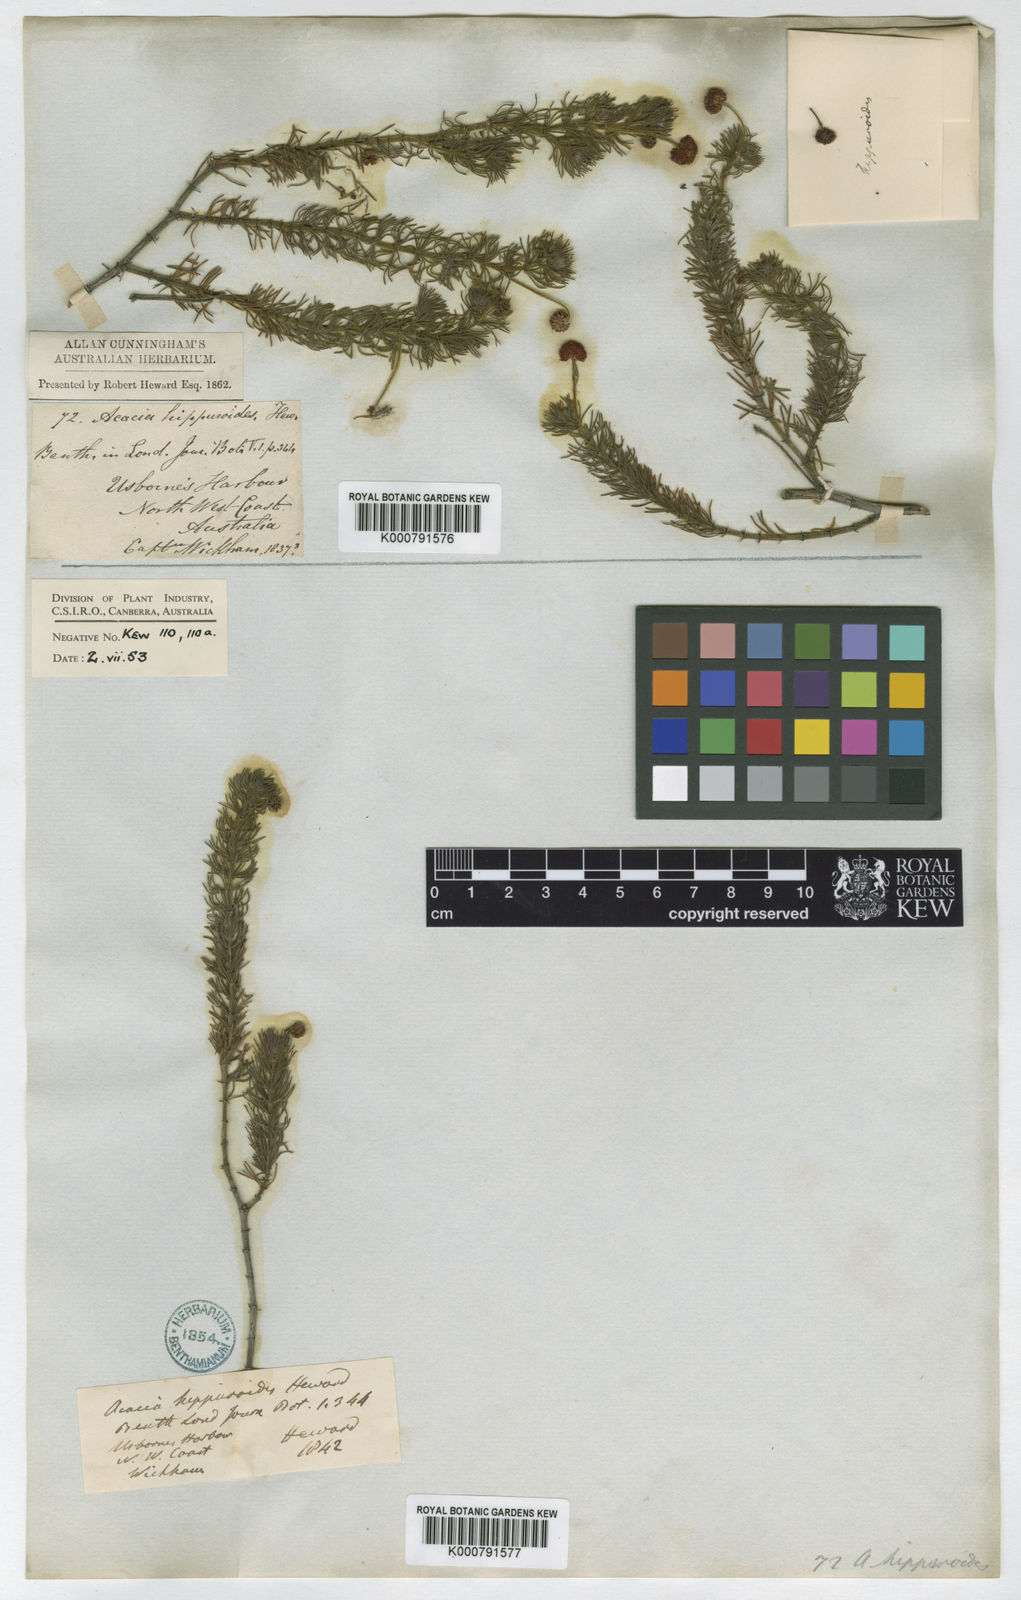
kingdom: Plantae
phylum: Tracheophyta
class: Magnoliopsida
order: Fabales
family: Fabaceae
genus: Acacia
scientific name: Acacia hippuroides
